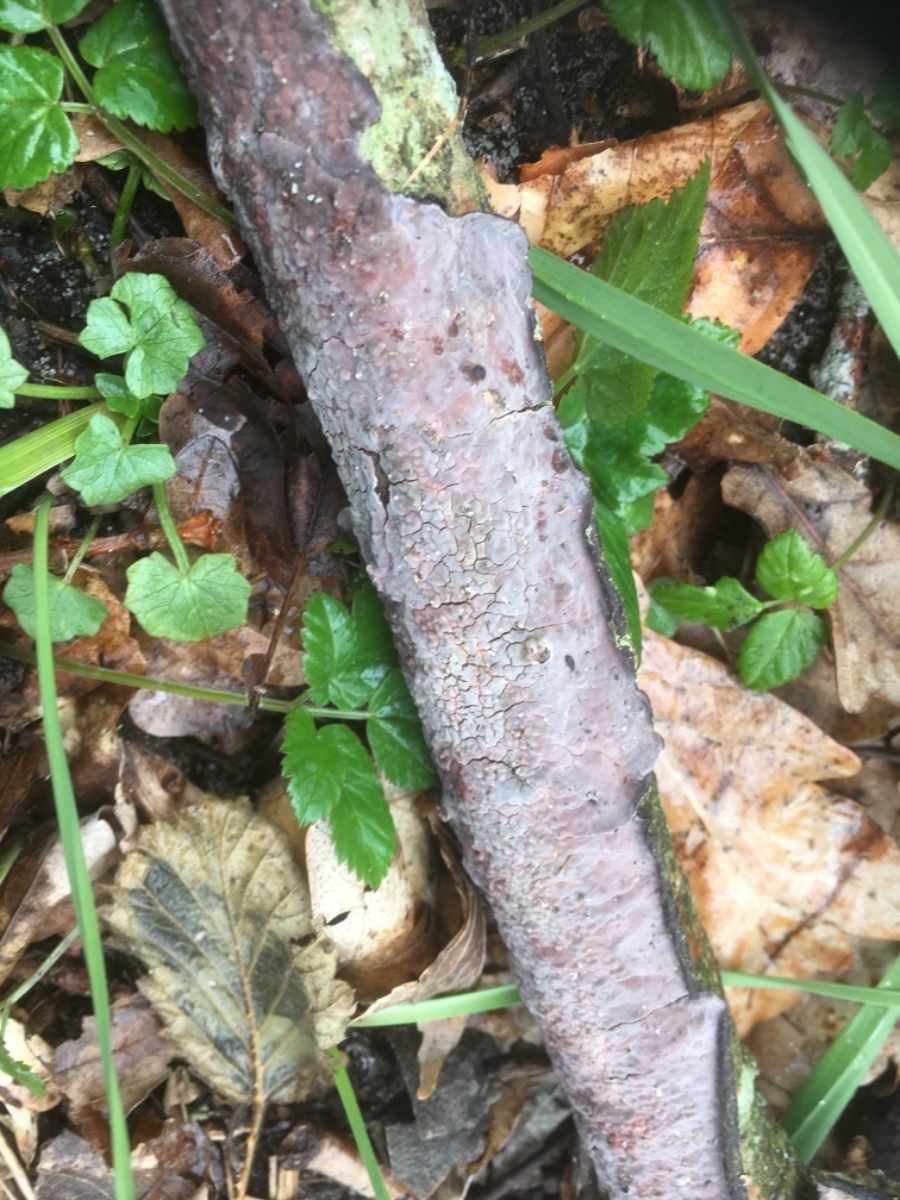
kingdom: Fungi
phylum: Basidiomycota
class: Agaricomycetes
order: Russulales
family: Peniophoraceae
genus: Peniophora
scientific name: Peniophora quercina
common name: ege-voksskind
